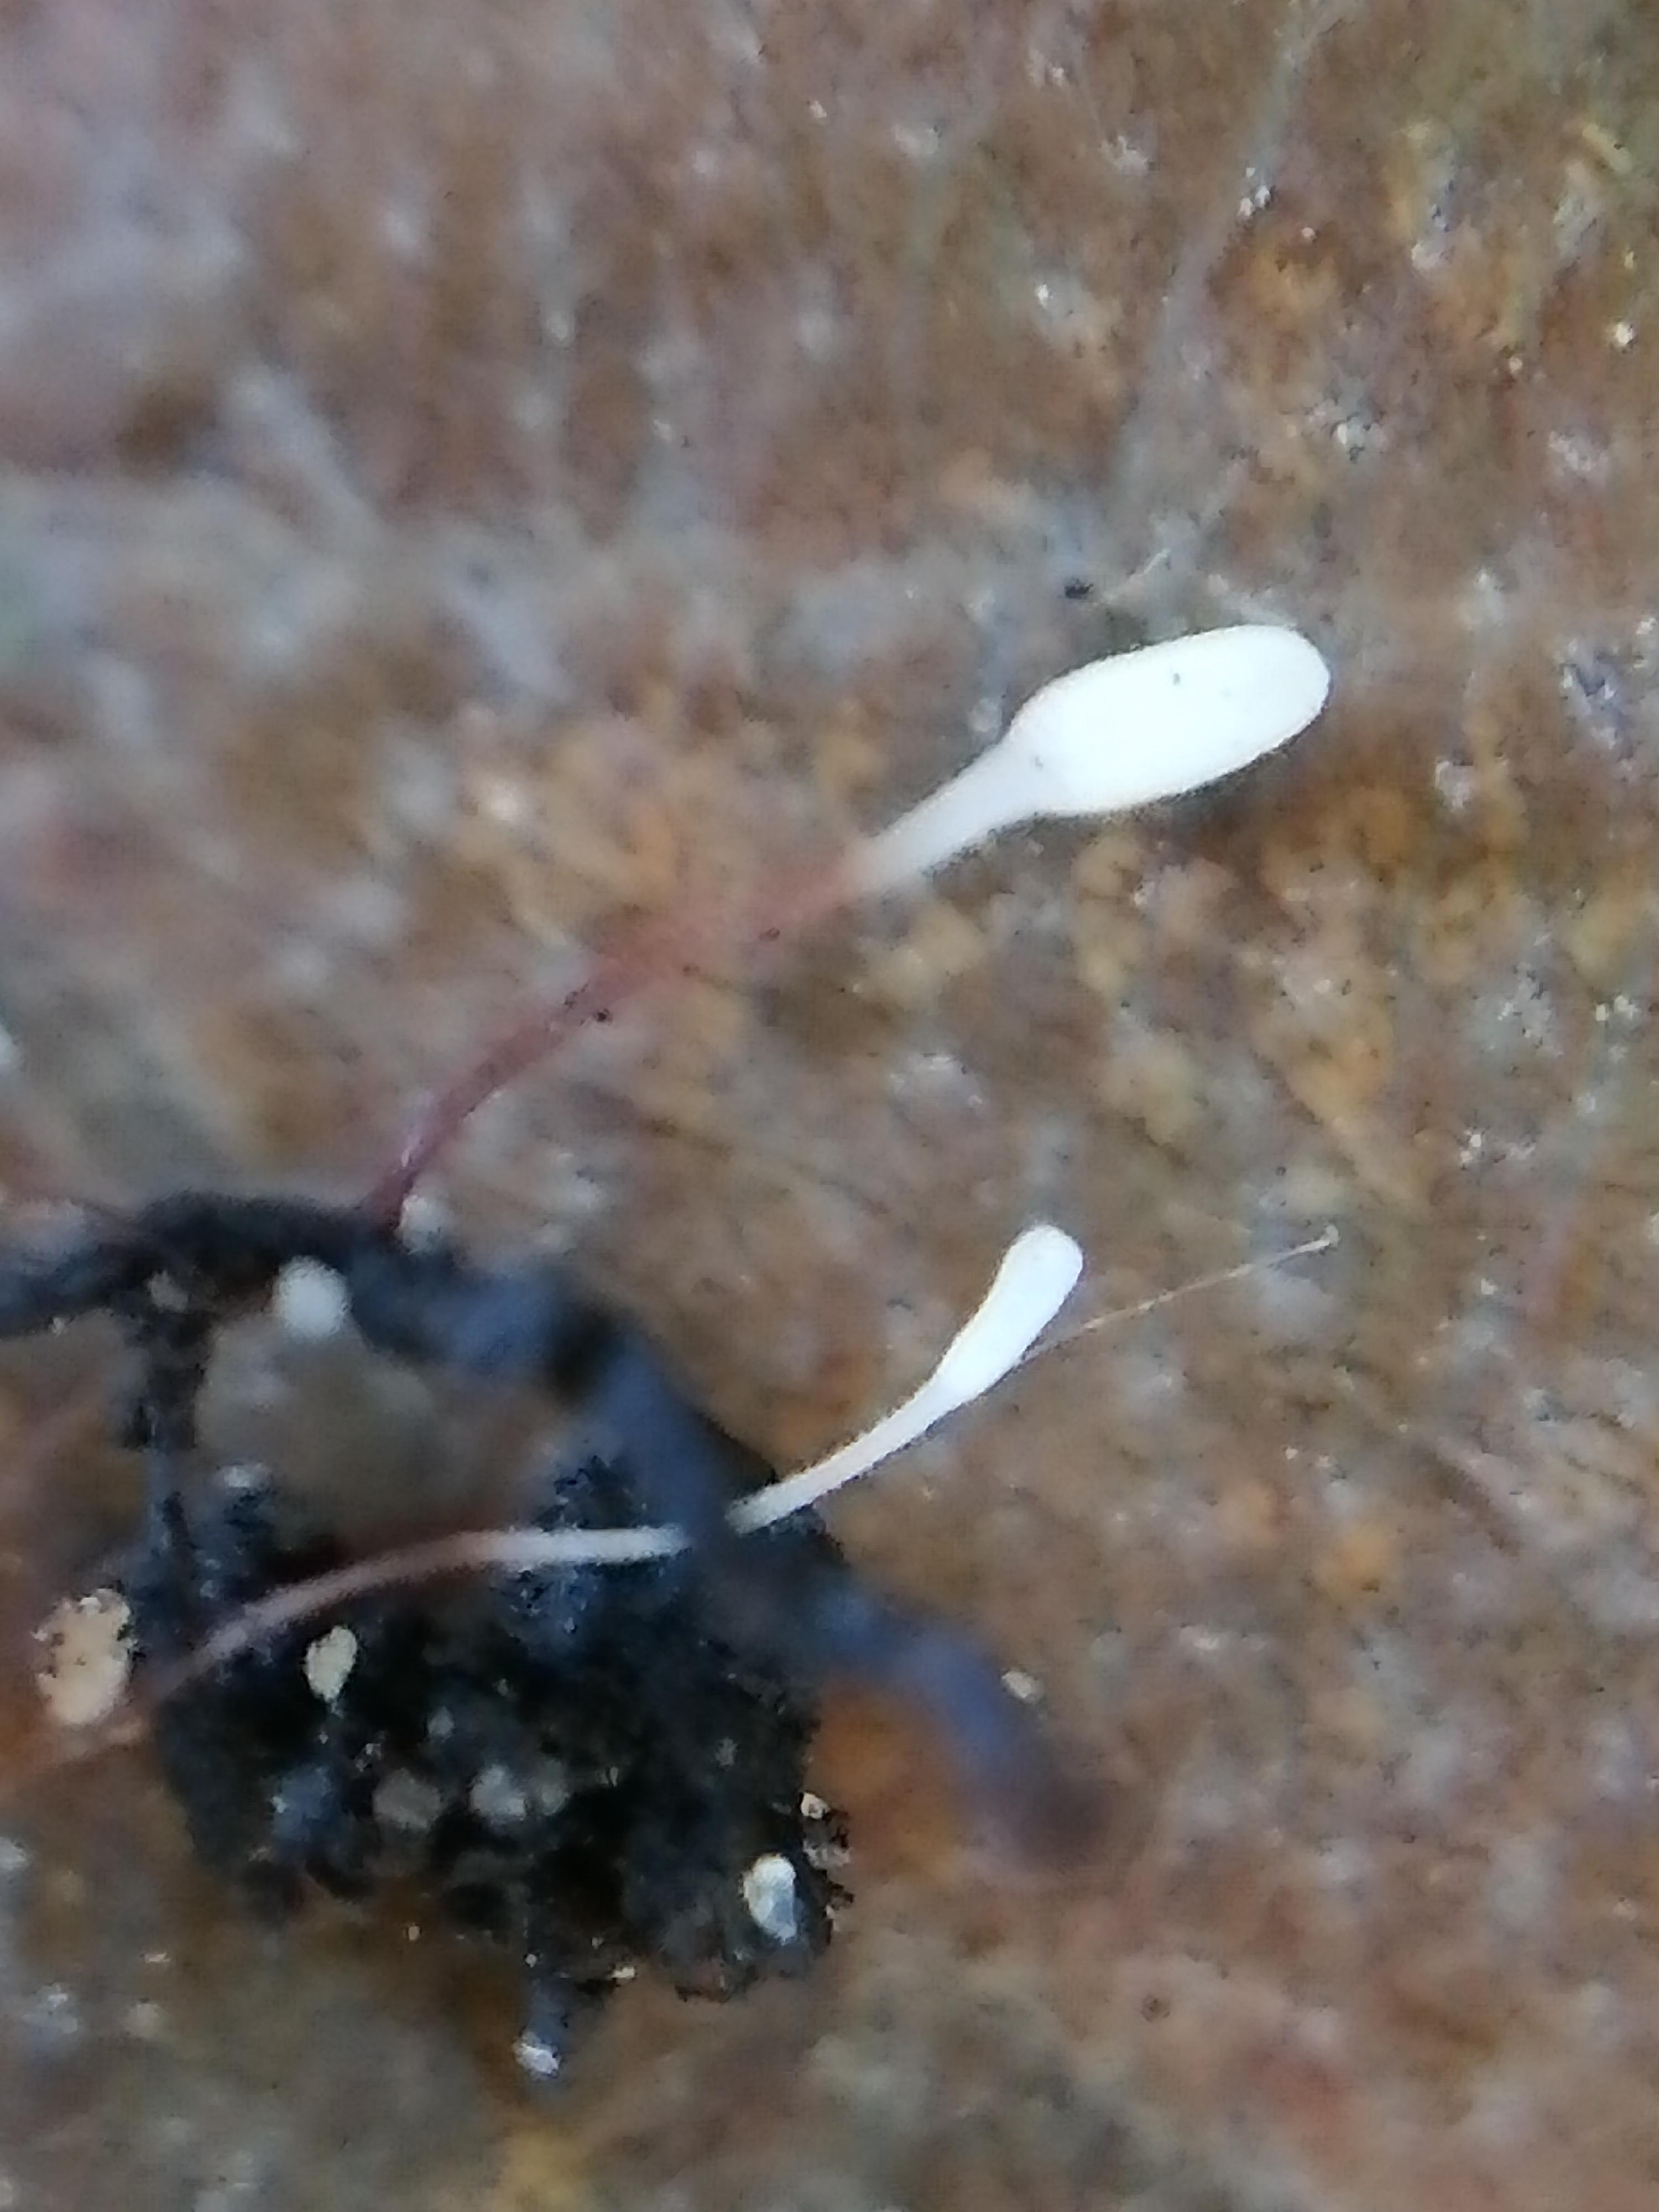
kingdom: Fungi
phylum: Basidiomycota
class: Agaricomycetes
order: Agaricales
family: Typhulaceae
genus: Typhula
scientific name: Typhula erythropus
